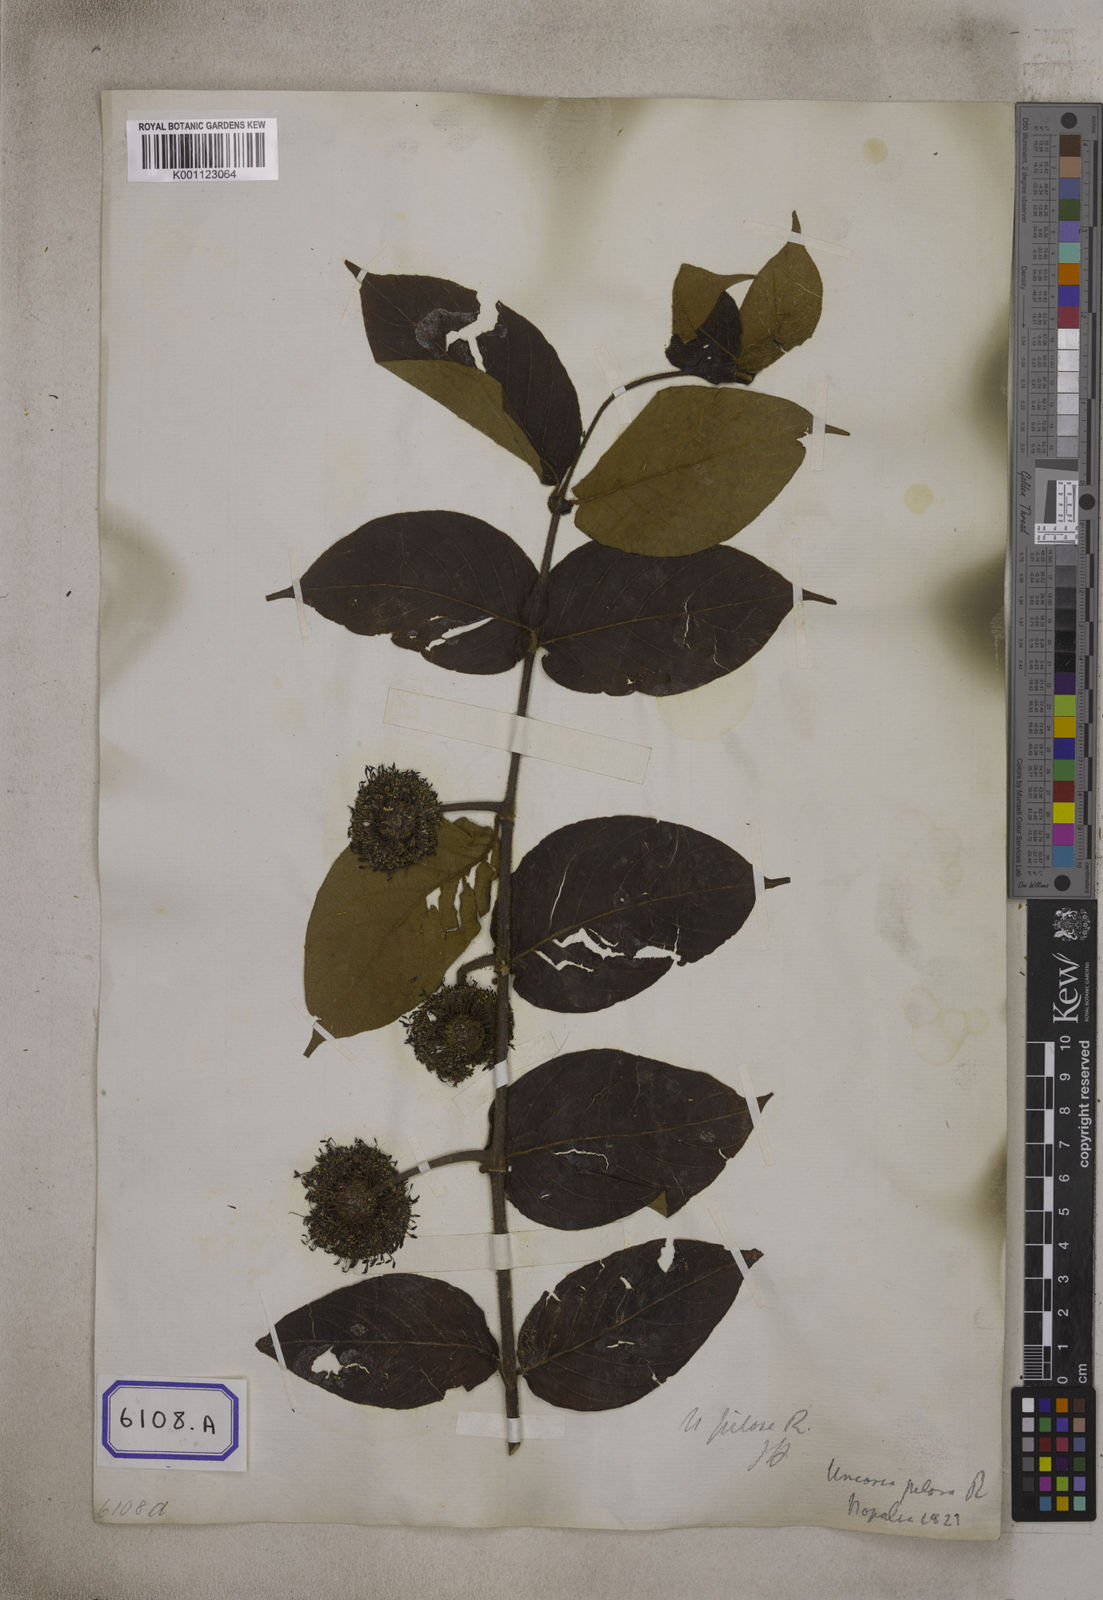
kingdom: Plantae
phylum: Tracheophyta
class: Magnoliopsida
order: Gentianales
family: Rubiaceae
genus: Uncaria
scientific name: Uncaria
